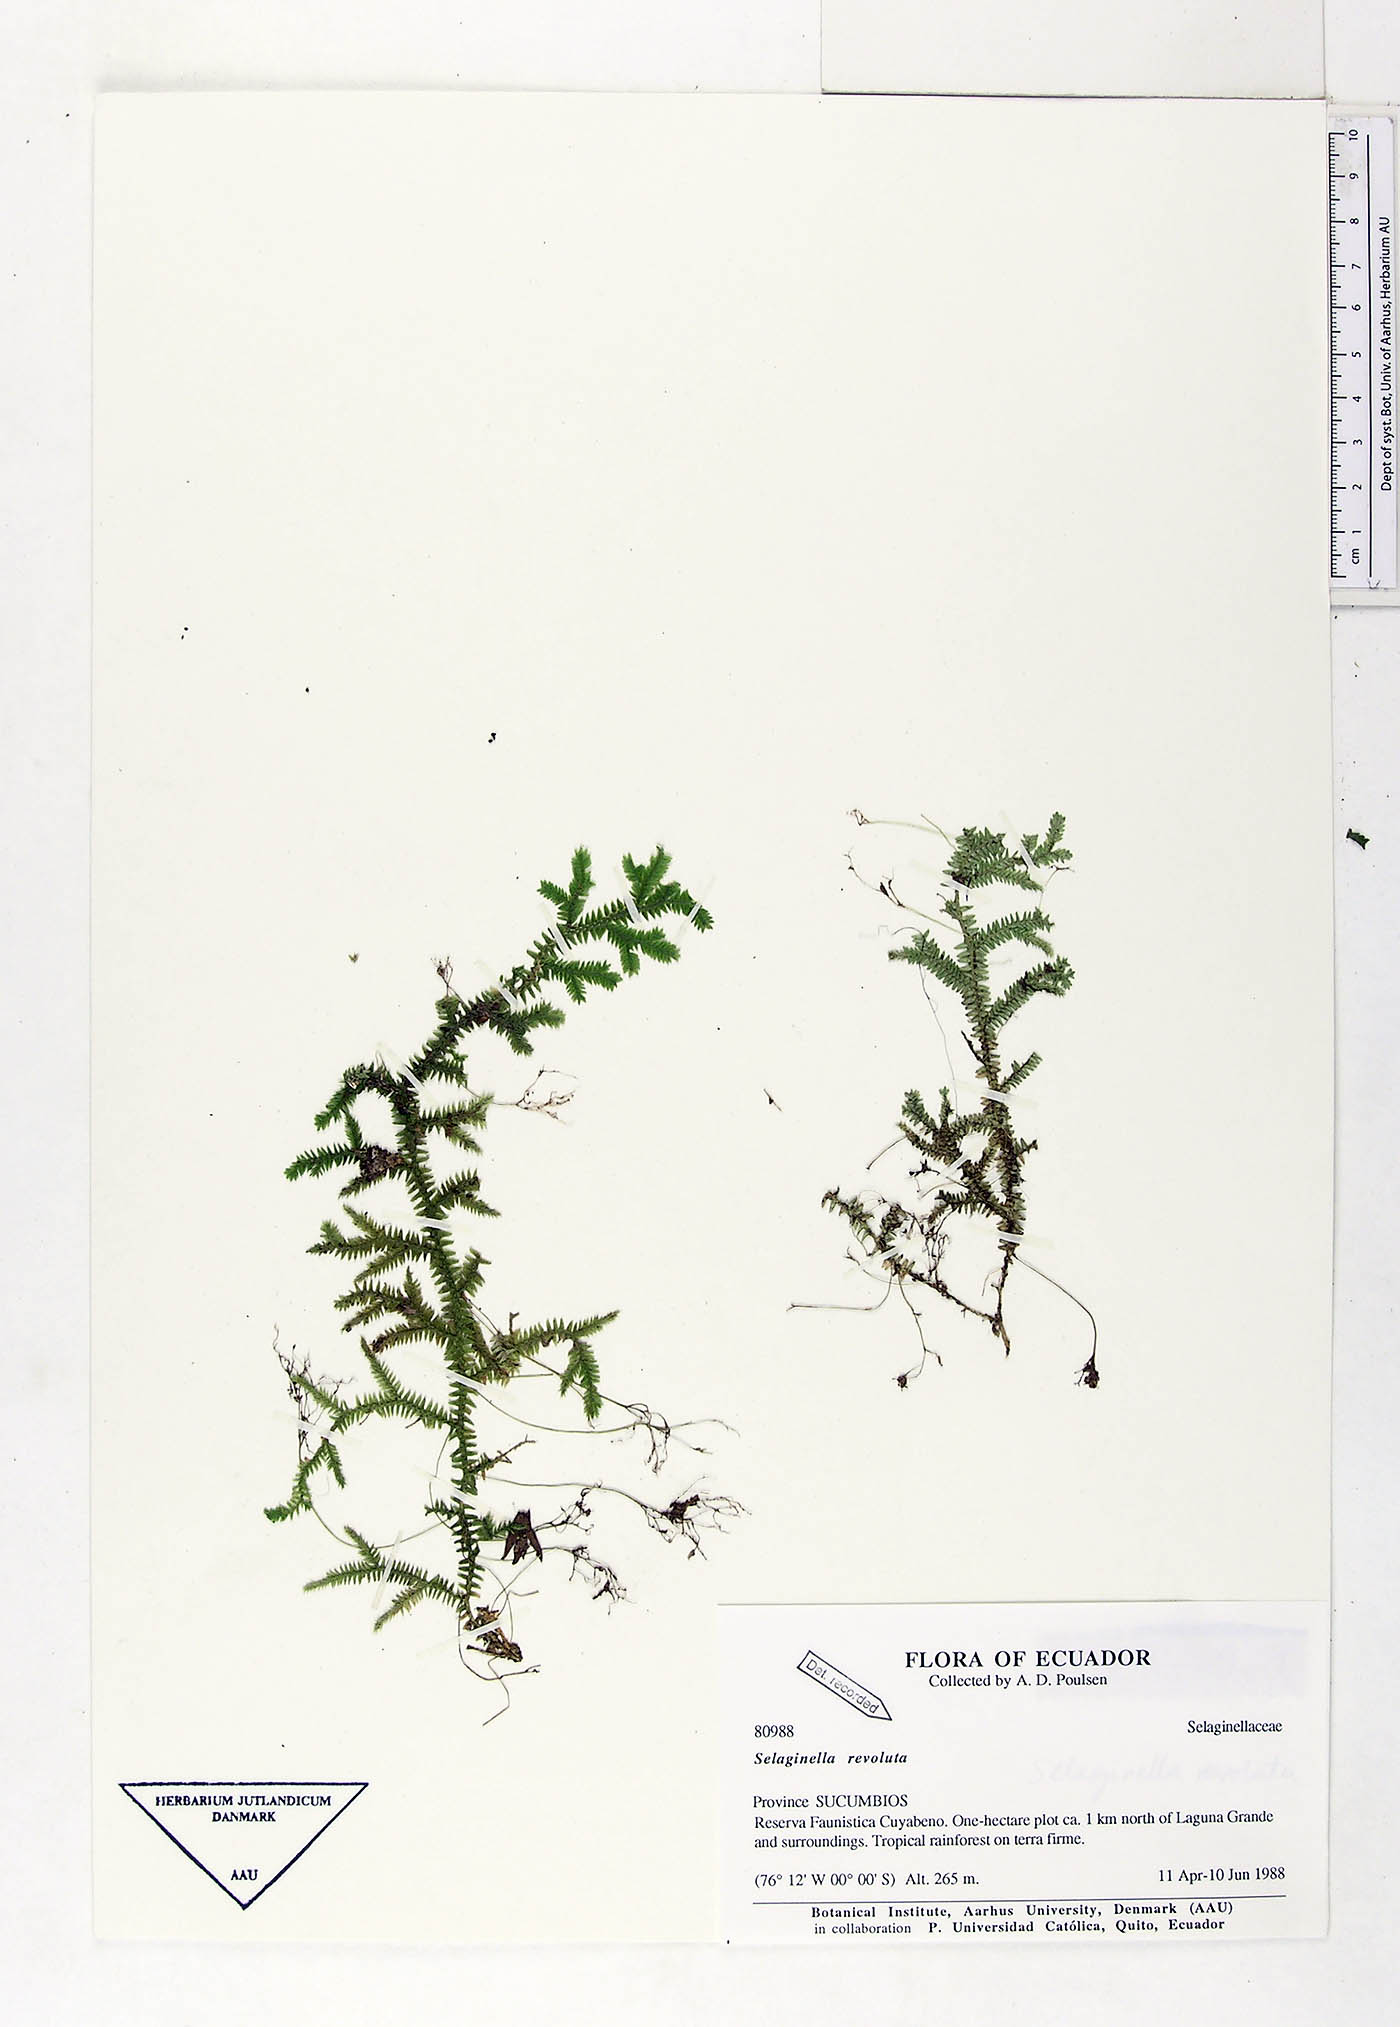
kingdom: Plantae
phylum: Tracheophyta
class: Lycopodiopsida
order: Selaginellales
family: Selaginellaceae
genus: Selaginella
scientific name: Selaginella revoluta
